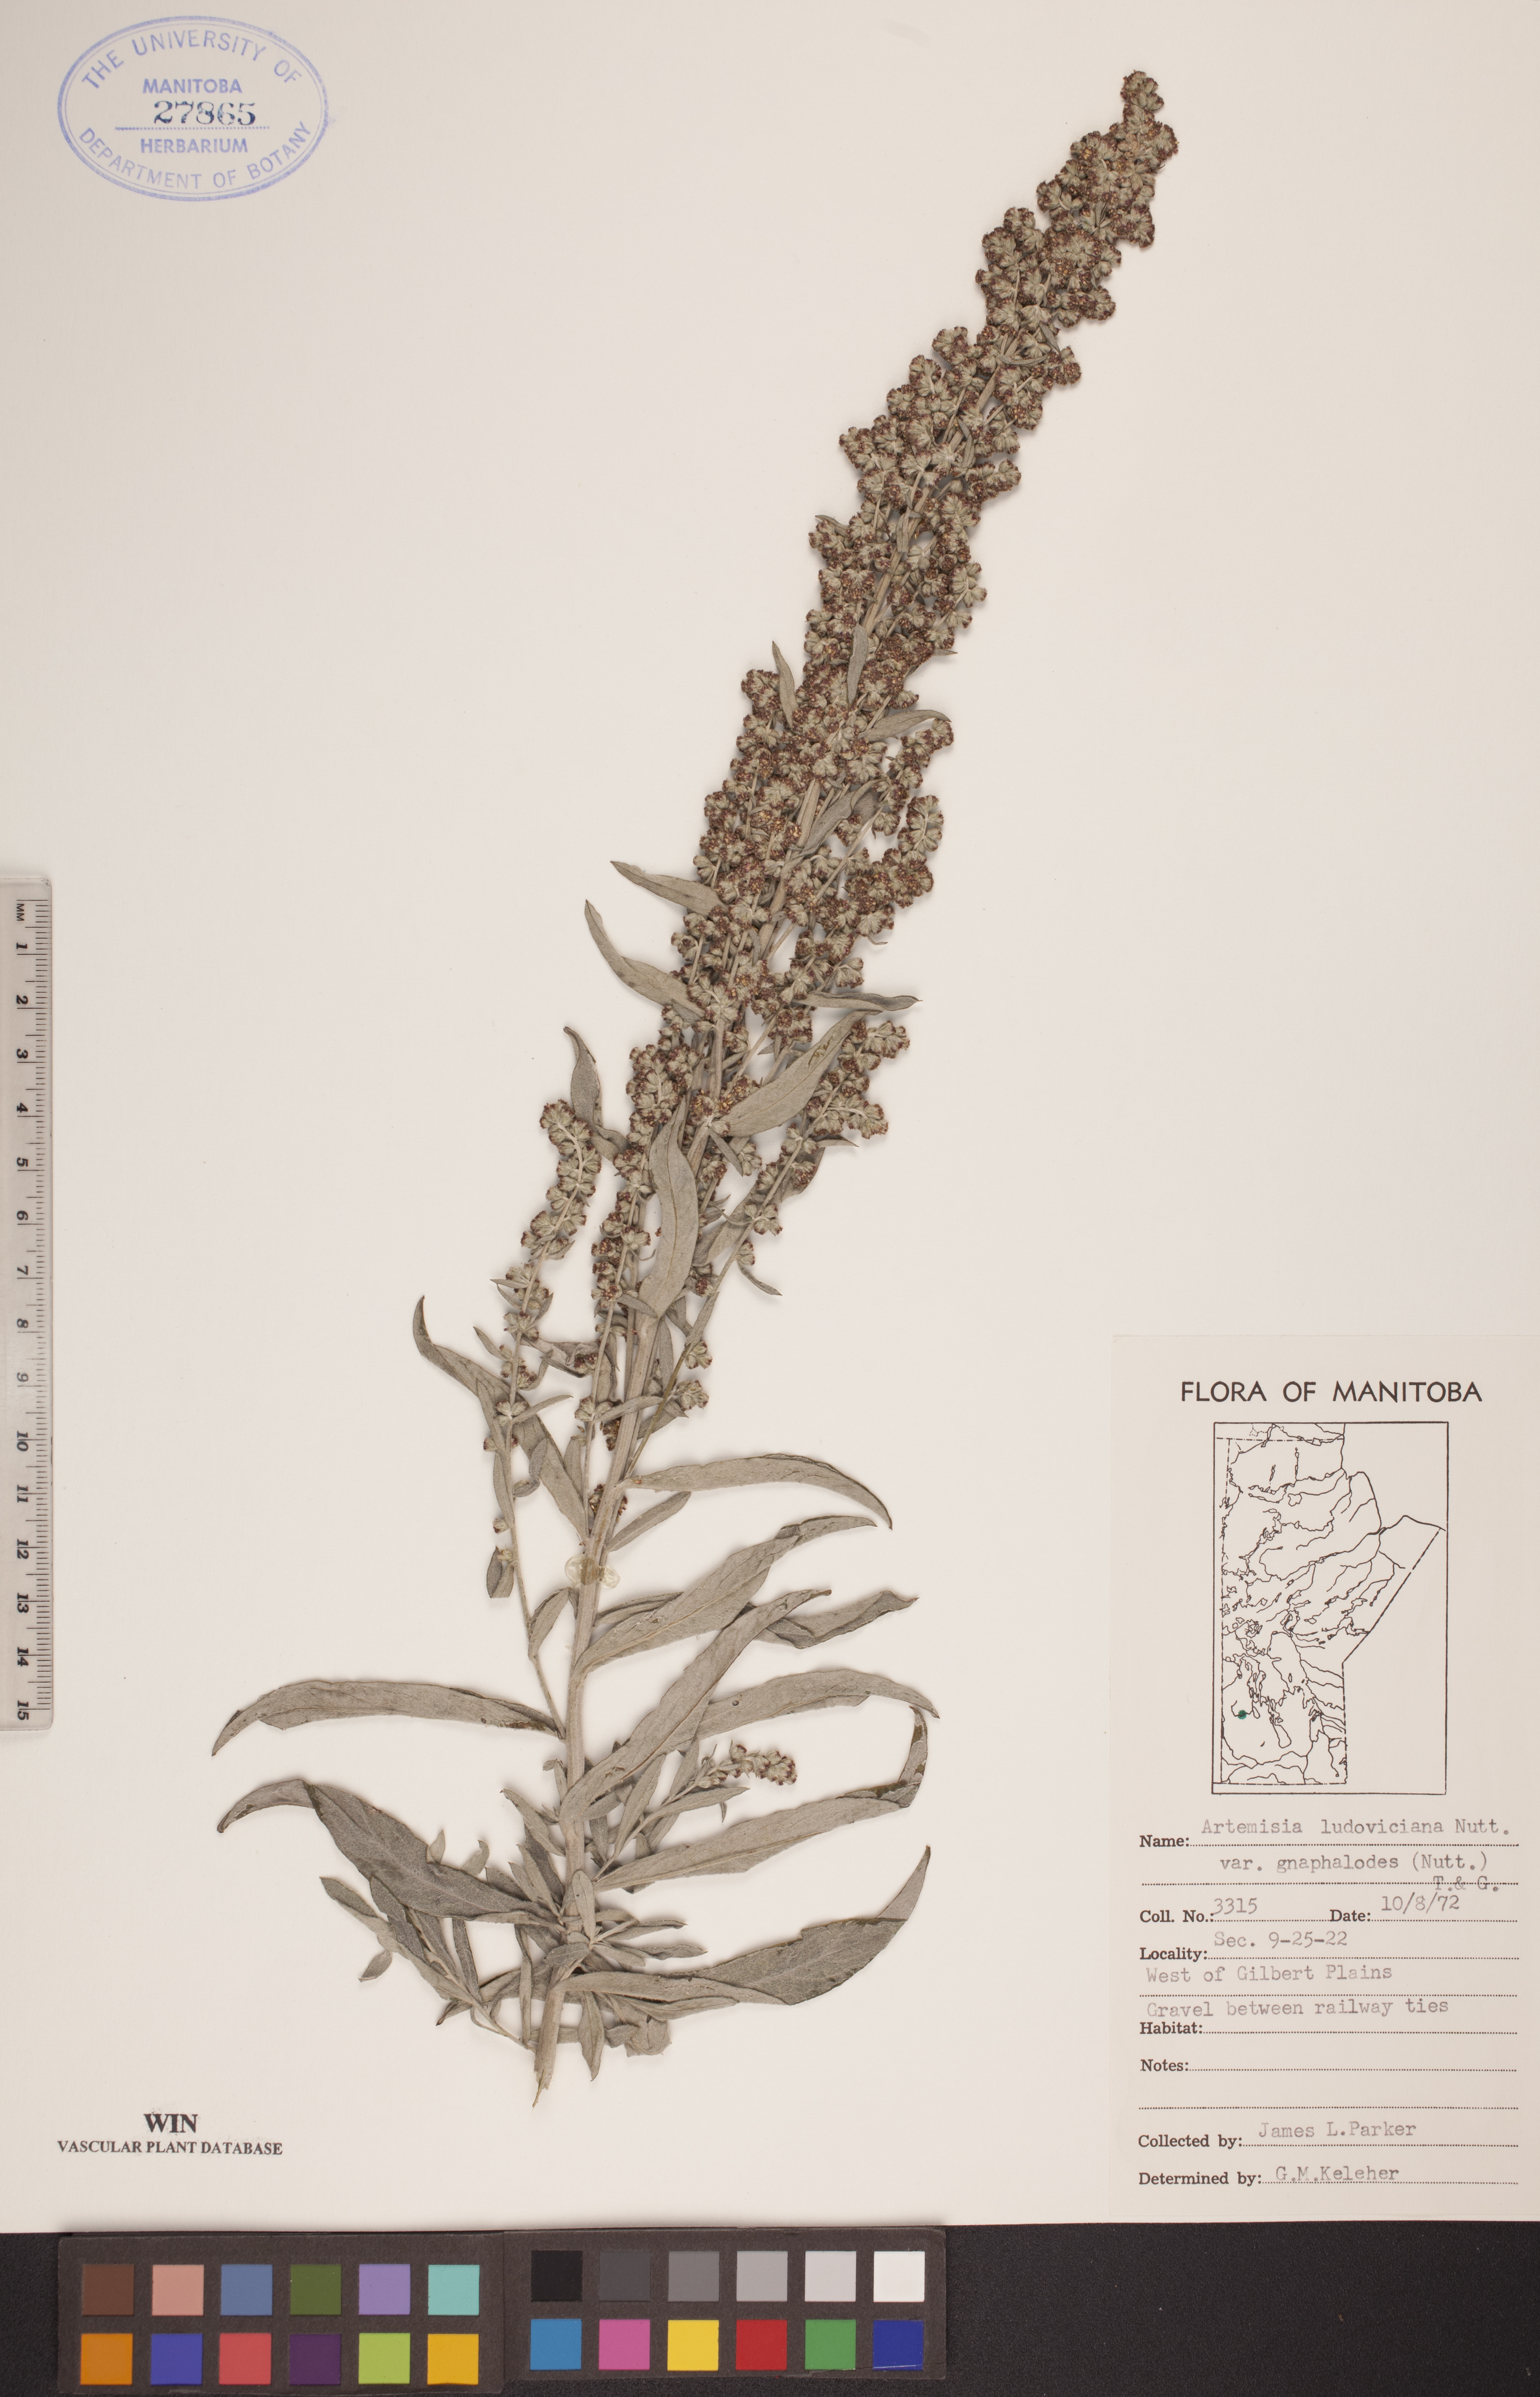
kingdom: Plantae
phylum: Tracheophyta
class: Magnoliopsida
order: Asterales
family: Asteraceae
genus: Artemisia
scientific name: Artemisia ludoviciana
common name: Western mugwort
